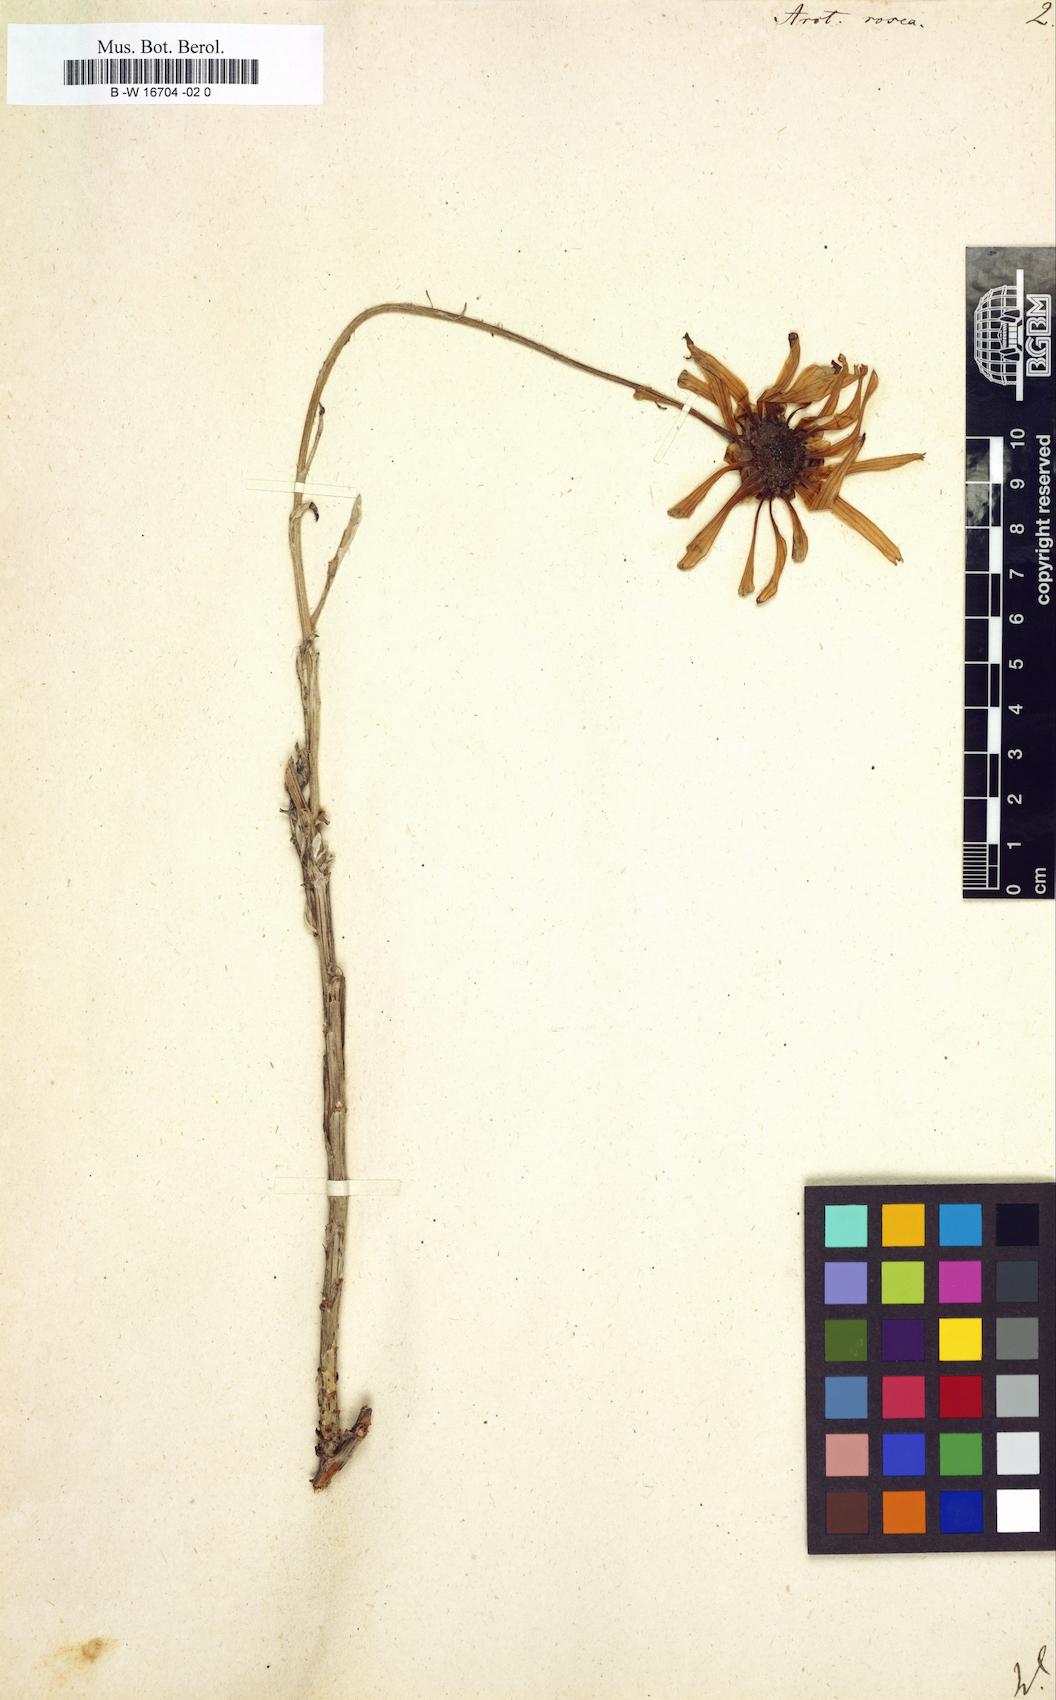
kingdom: Plantae
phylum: Tracheophyta
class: Magnoliopsida
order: Asterales
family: Asteraceae
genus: Arctotis
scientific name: Arctotis rosea
